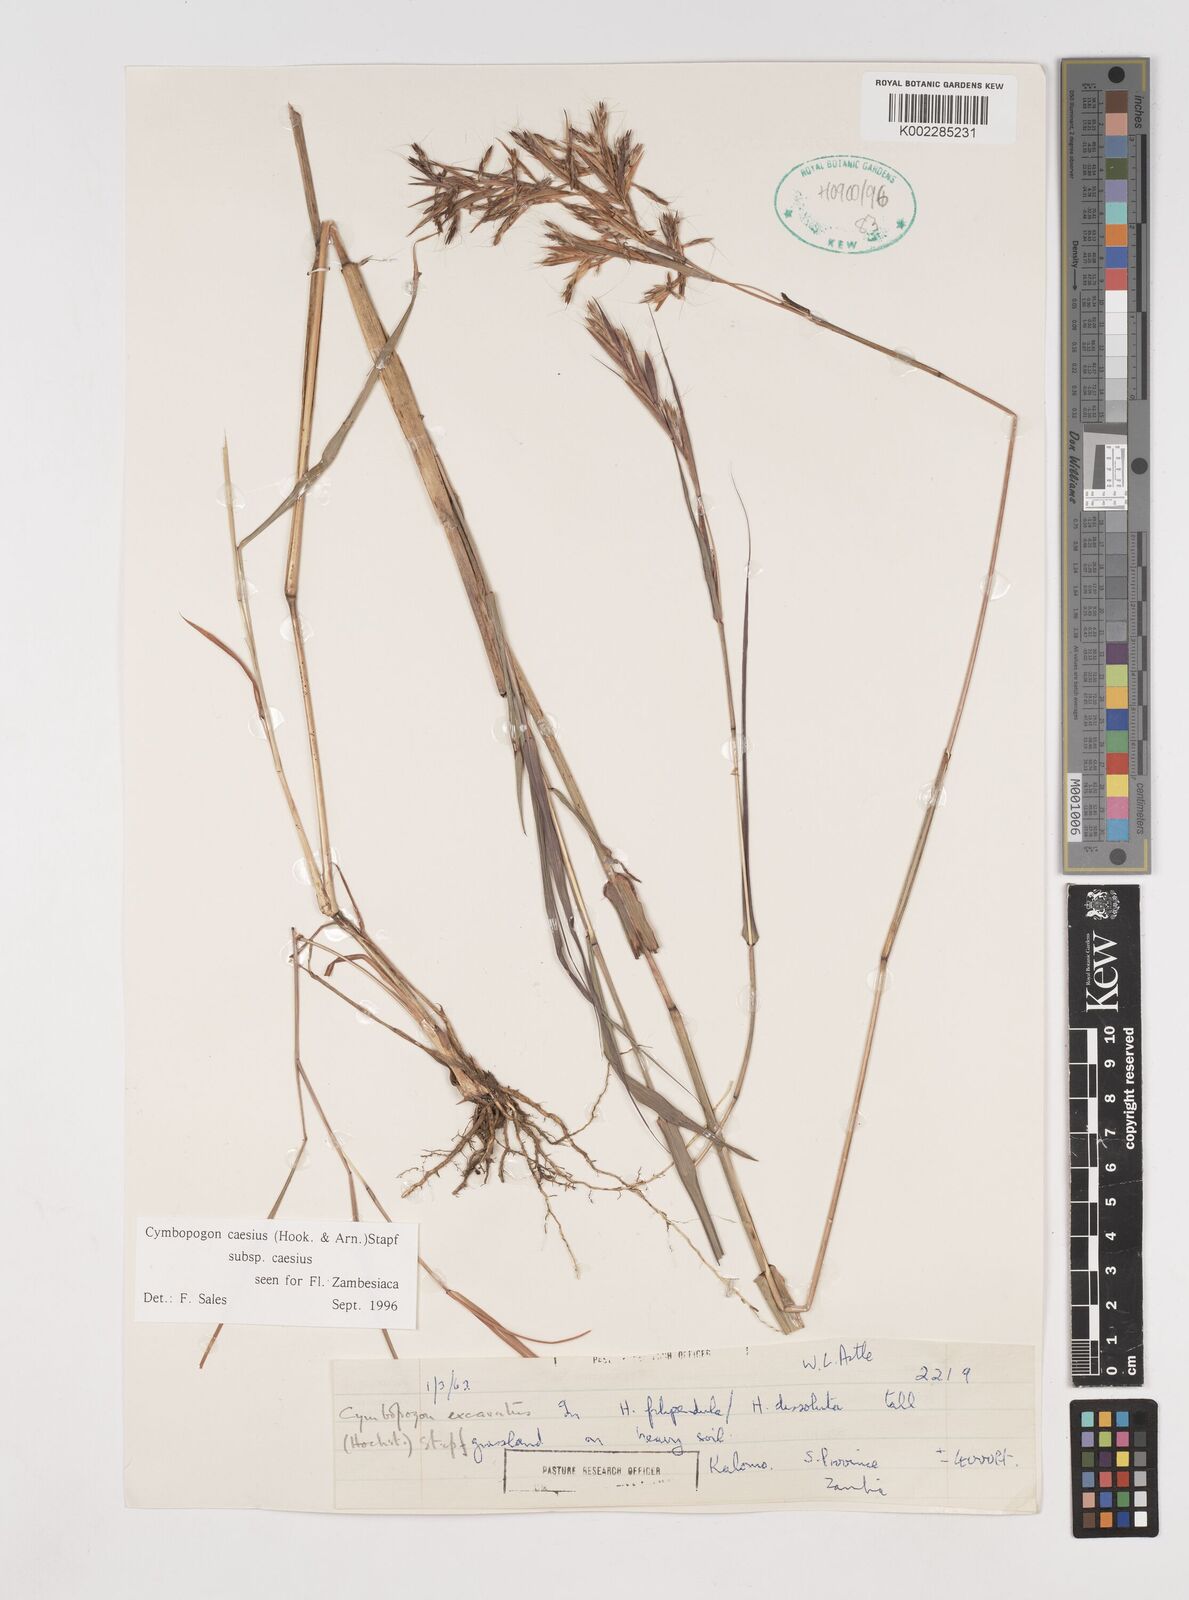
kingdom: Plantae
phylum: Tracheophyta
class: Liliopsida
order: Poales
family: Poaceae
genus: Cymbopogon
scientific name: Cymbopogon caesius
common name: Kachi grass
